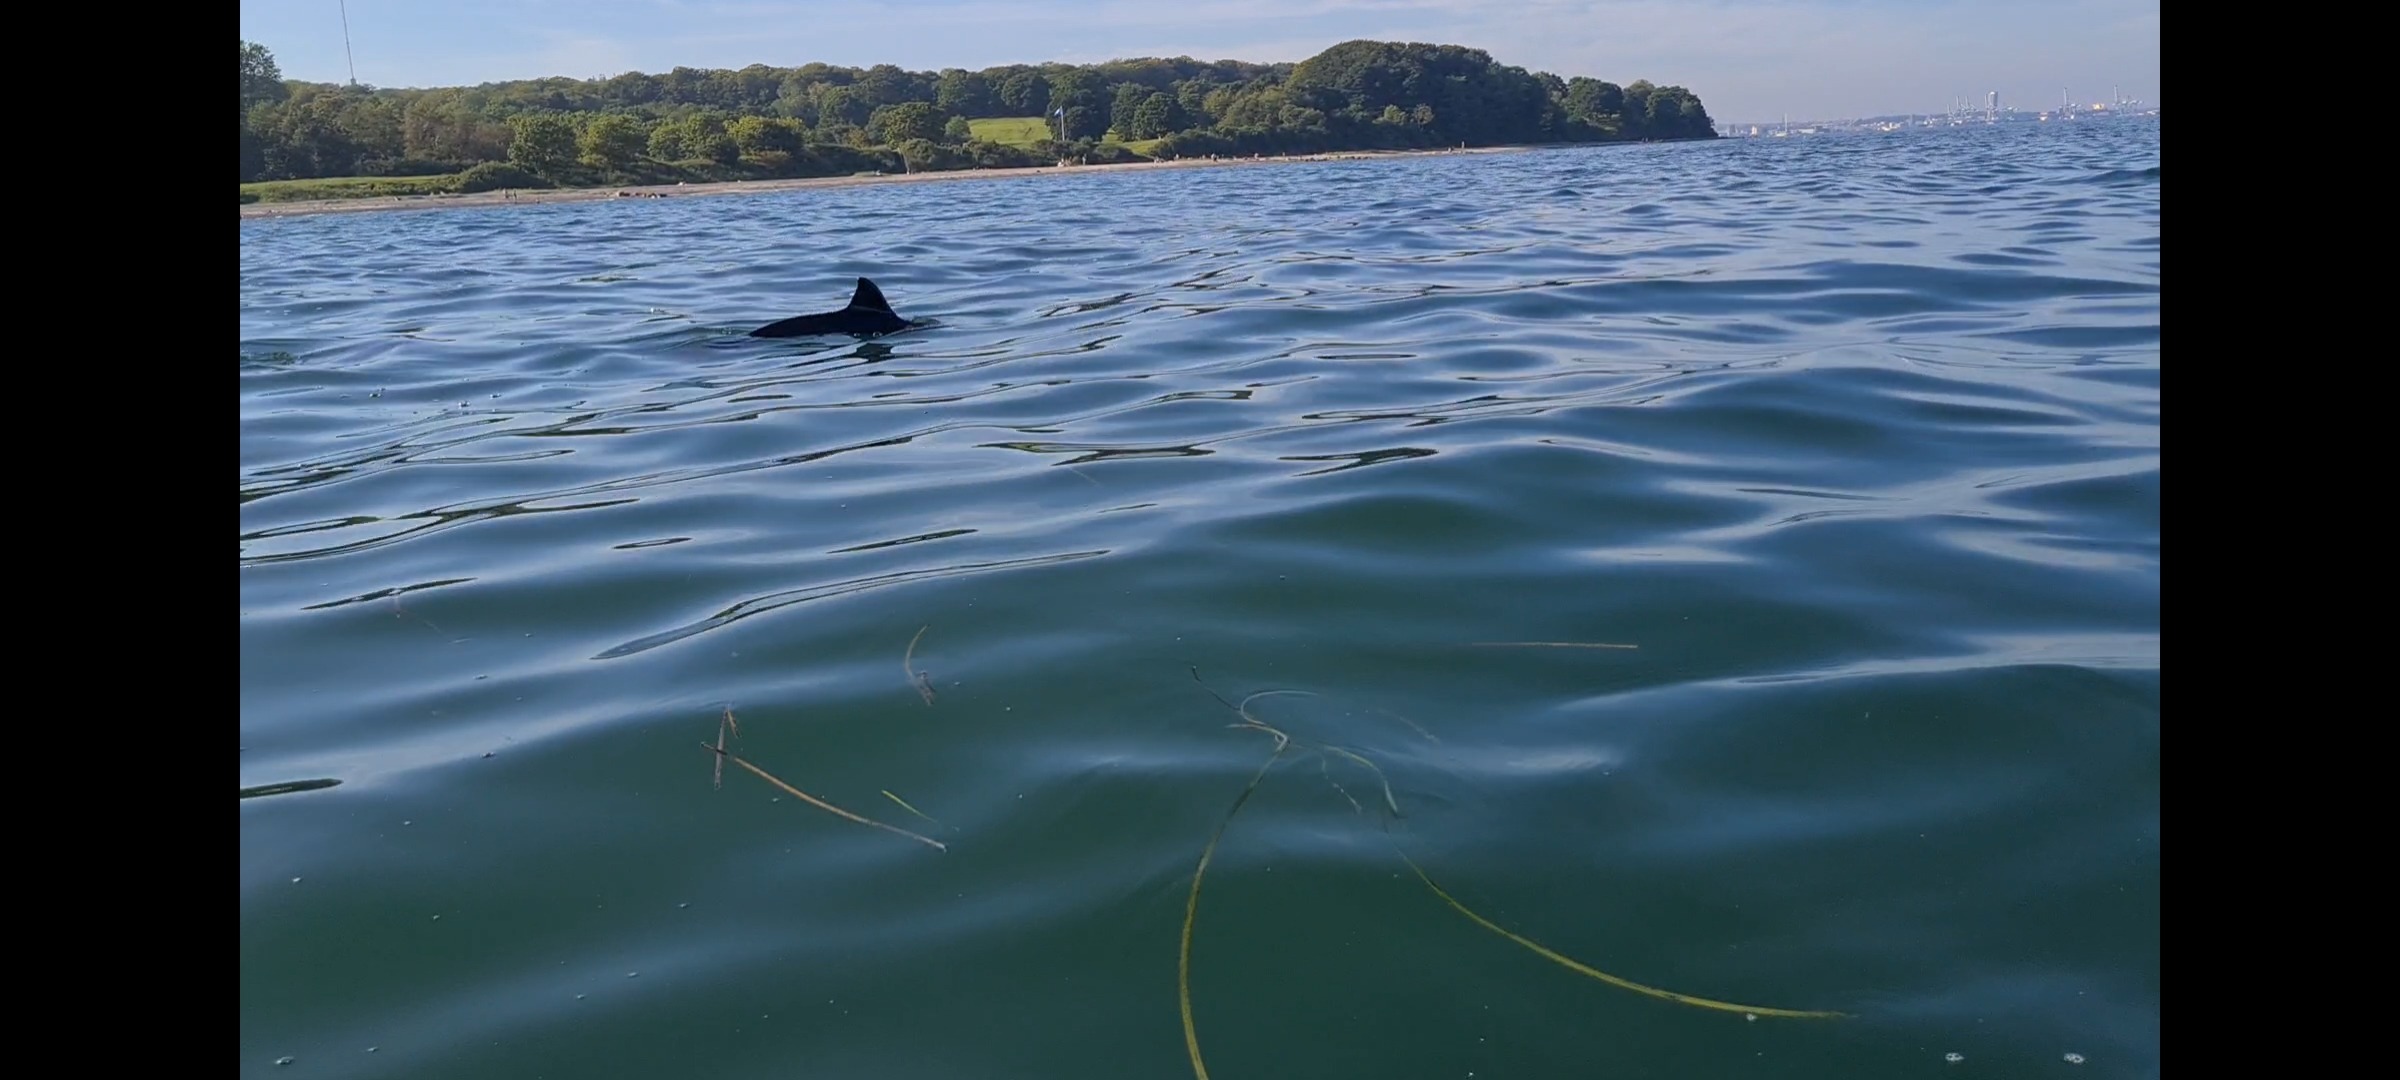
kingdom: Animalia
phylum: Chordata
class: Mammalia
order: Cetacea
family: Phocoenidae
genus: Phocoena
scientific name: Phocoena phocoena
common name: Marsvin
